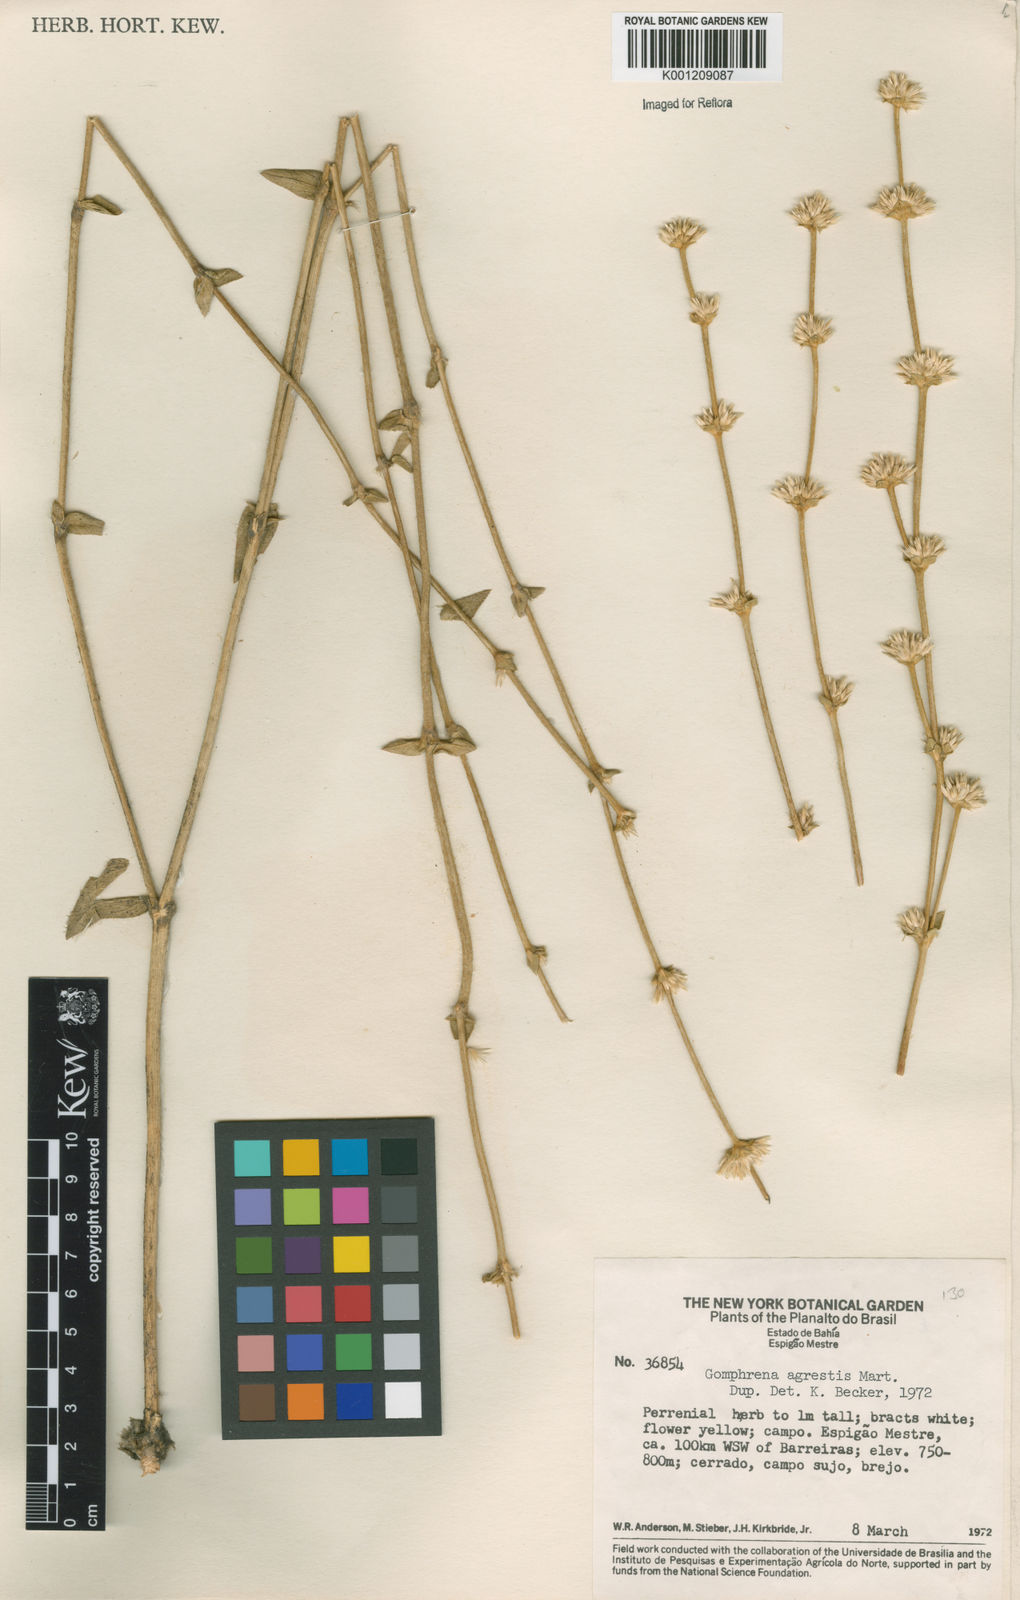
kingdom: Plantae
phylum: Tracheophyta
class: Magnoliopsida
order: Caryophyllales
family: Amaranthaceae
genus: Gomphrena
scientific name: Gomphrena agrestis
